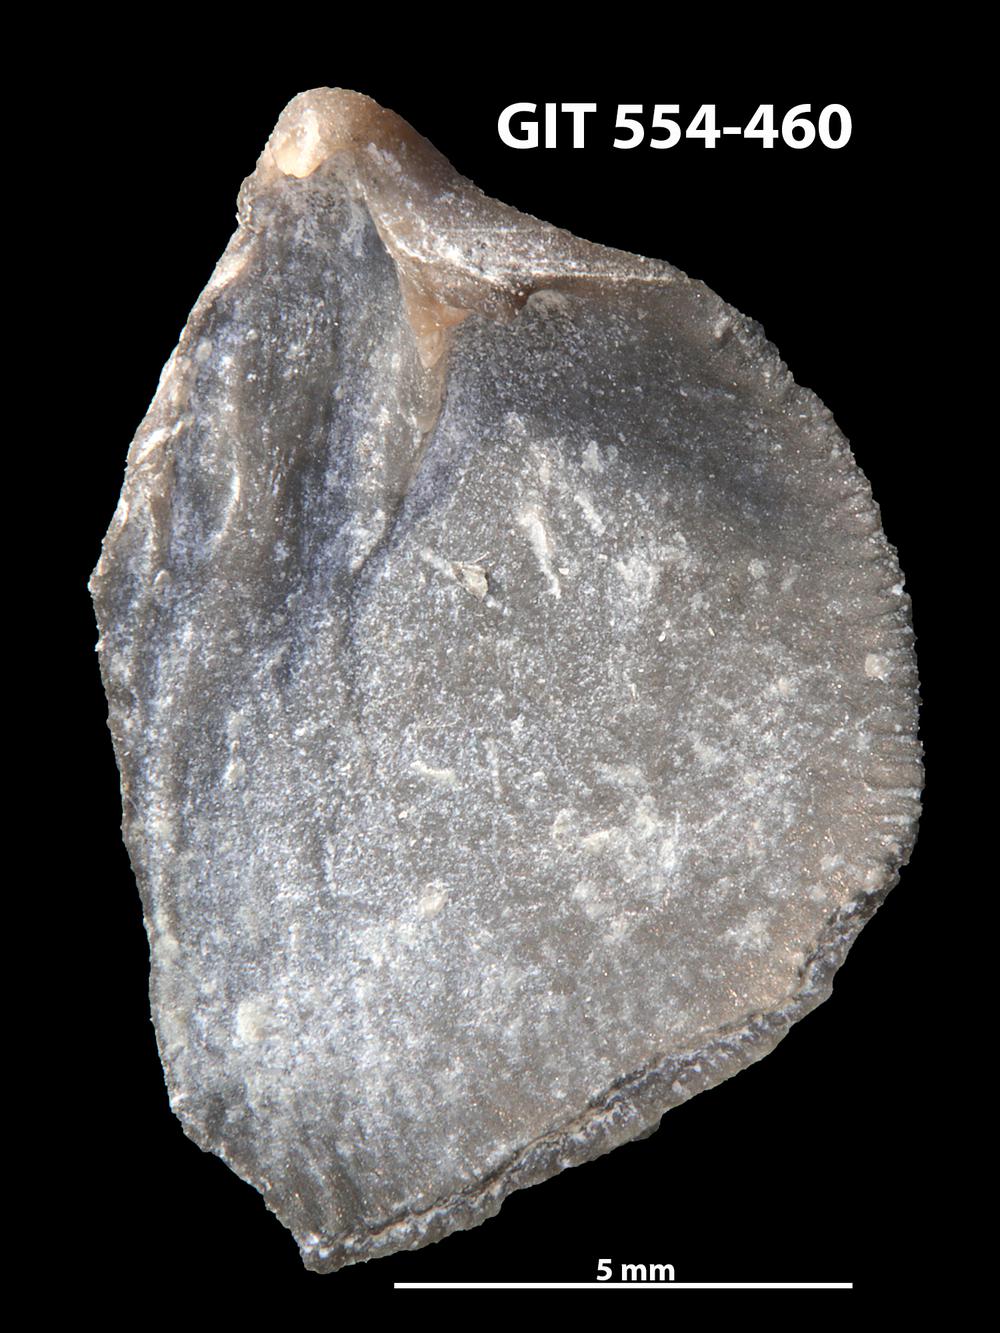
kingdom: Animalia
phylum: Brachiopoda
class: Rhynchonellata
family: Dalmanellidae
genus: Onniella
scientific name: Onniella trigona
